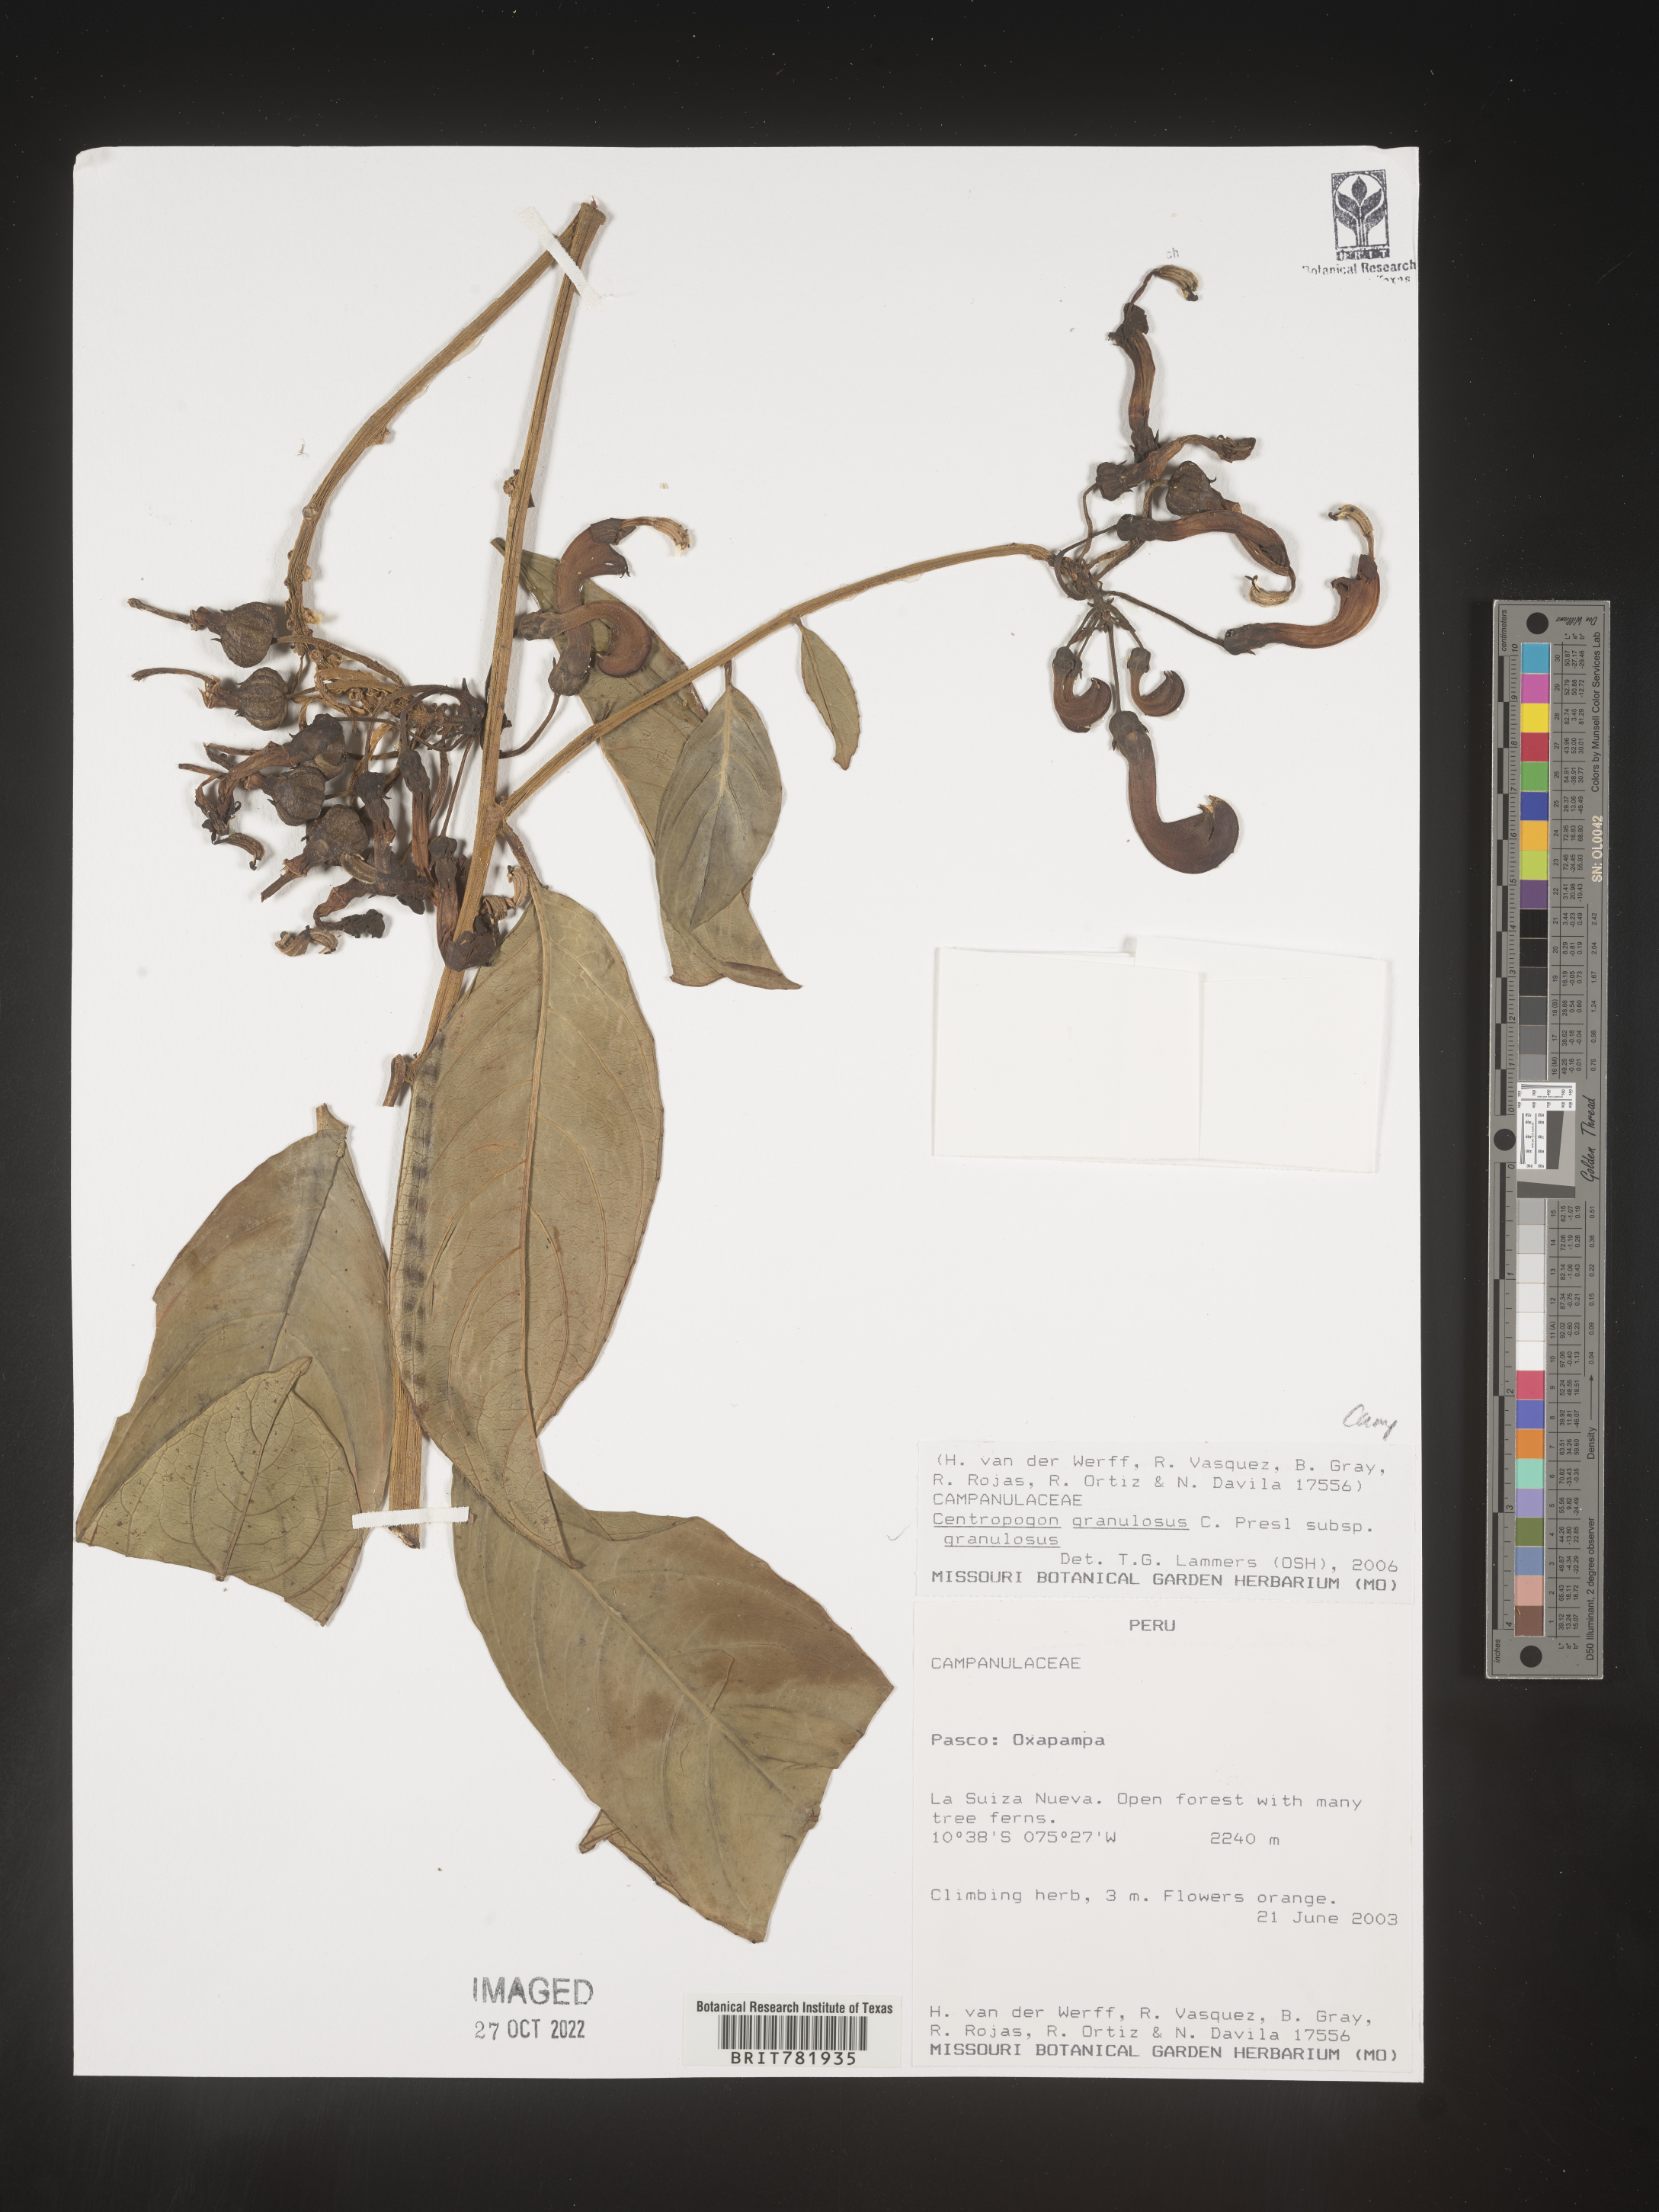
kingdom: Plantae
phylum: Tracheophyta
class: Magnoliopsida
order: Asterales
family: Campanulaceae
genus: Centropogon
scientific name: Centropogon
